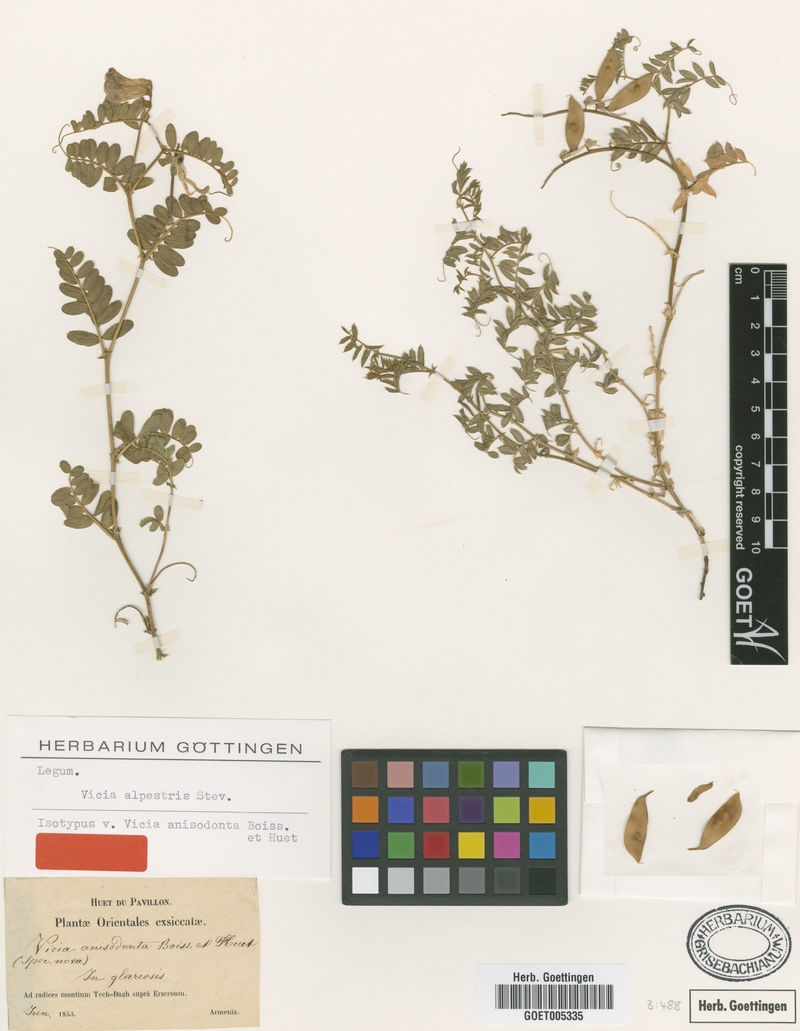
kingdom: Plantae
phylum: Tracheophyta
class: Magnoliopsida
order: Fabales
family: Fabaceae
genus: Vicia
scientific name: Vicia alpestris
